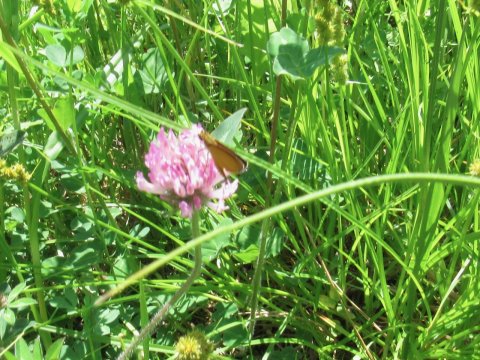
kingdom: Animalia
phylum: Arthropoda
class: Insecta
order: Lepidoptera
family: Hesperiidae
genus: Ancyloxypha
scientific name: Ancyloxypha numitor
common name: Least Skipper
